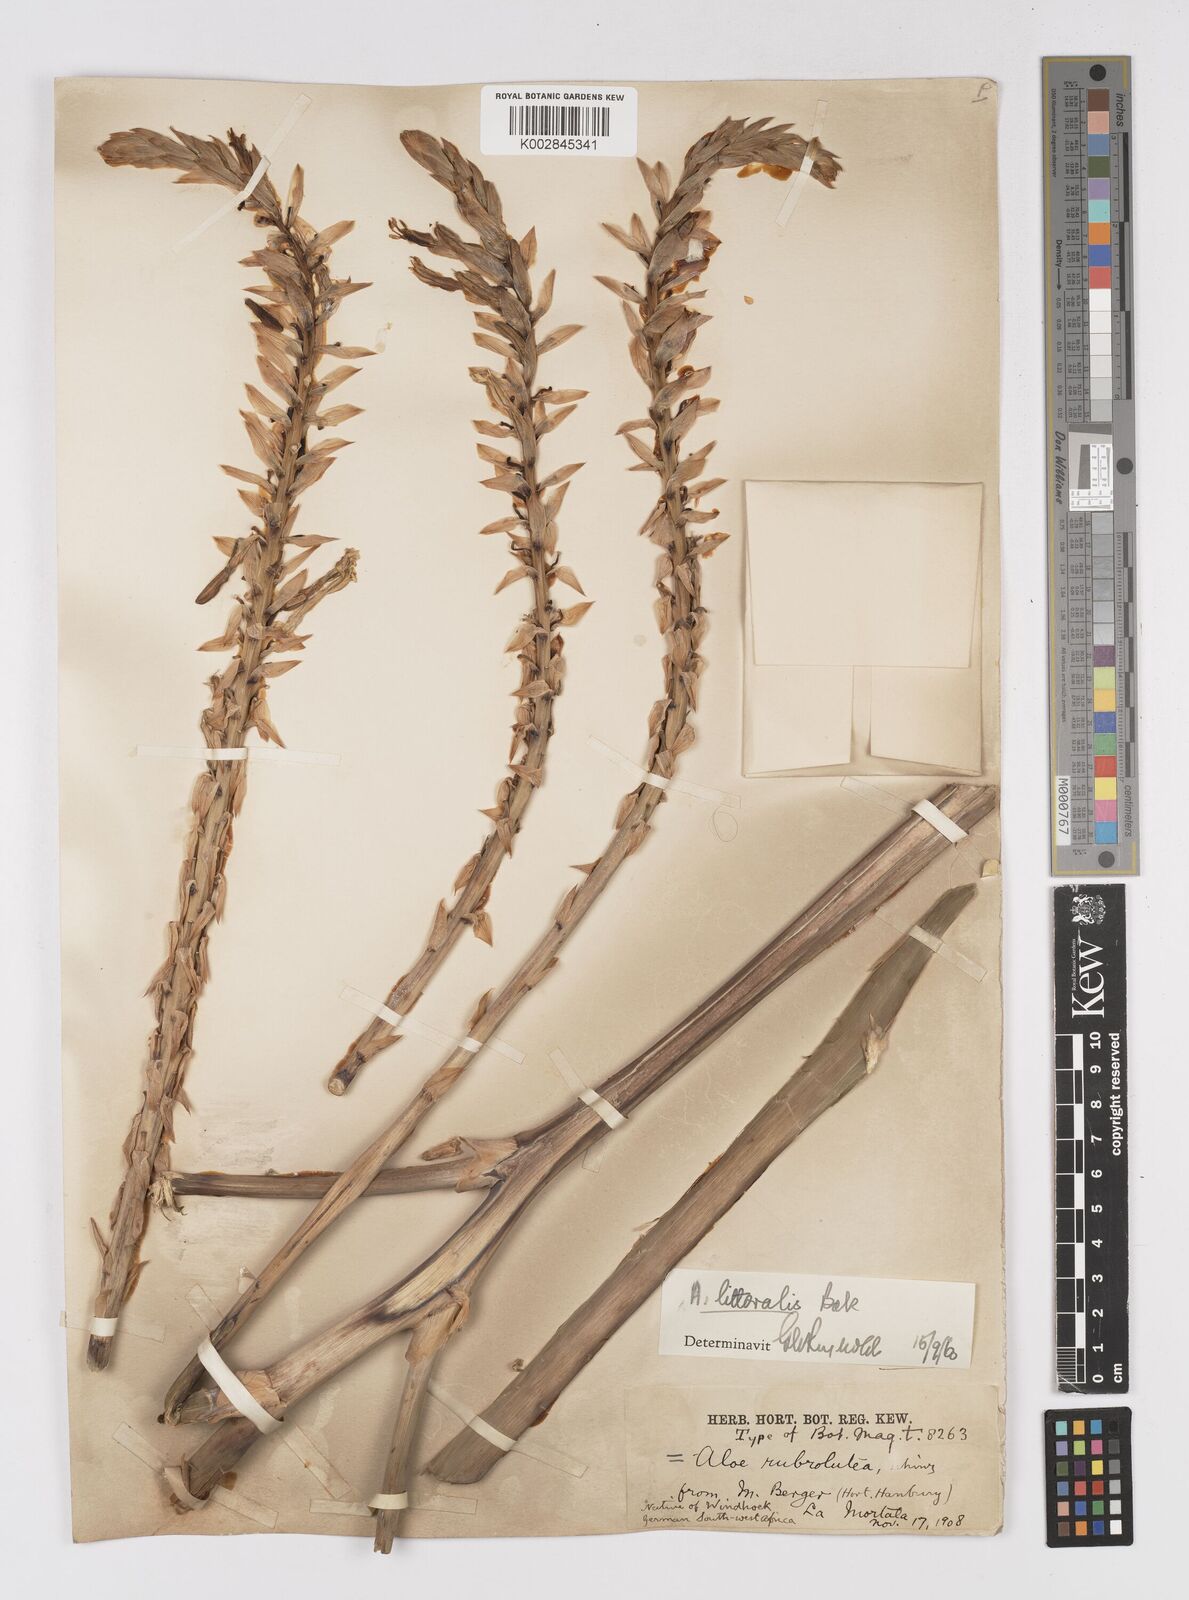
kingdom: Plantae
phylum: Tracheophyta
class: Liliopsida
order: Asparagales
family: Asphodelaceae
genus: Aloe
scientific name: Aloe littoralis
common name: Luanda tree aloe
